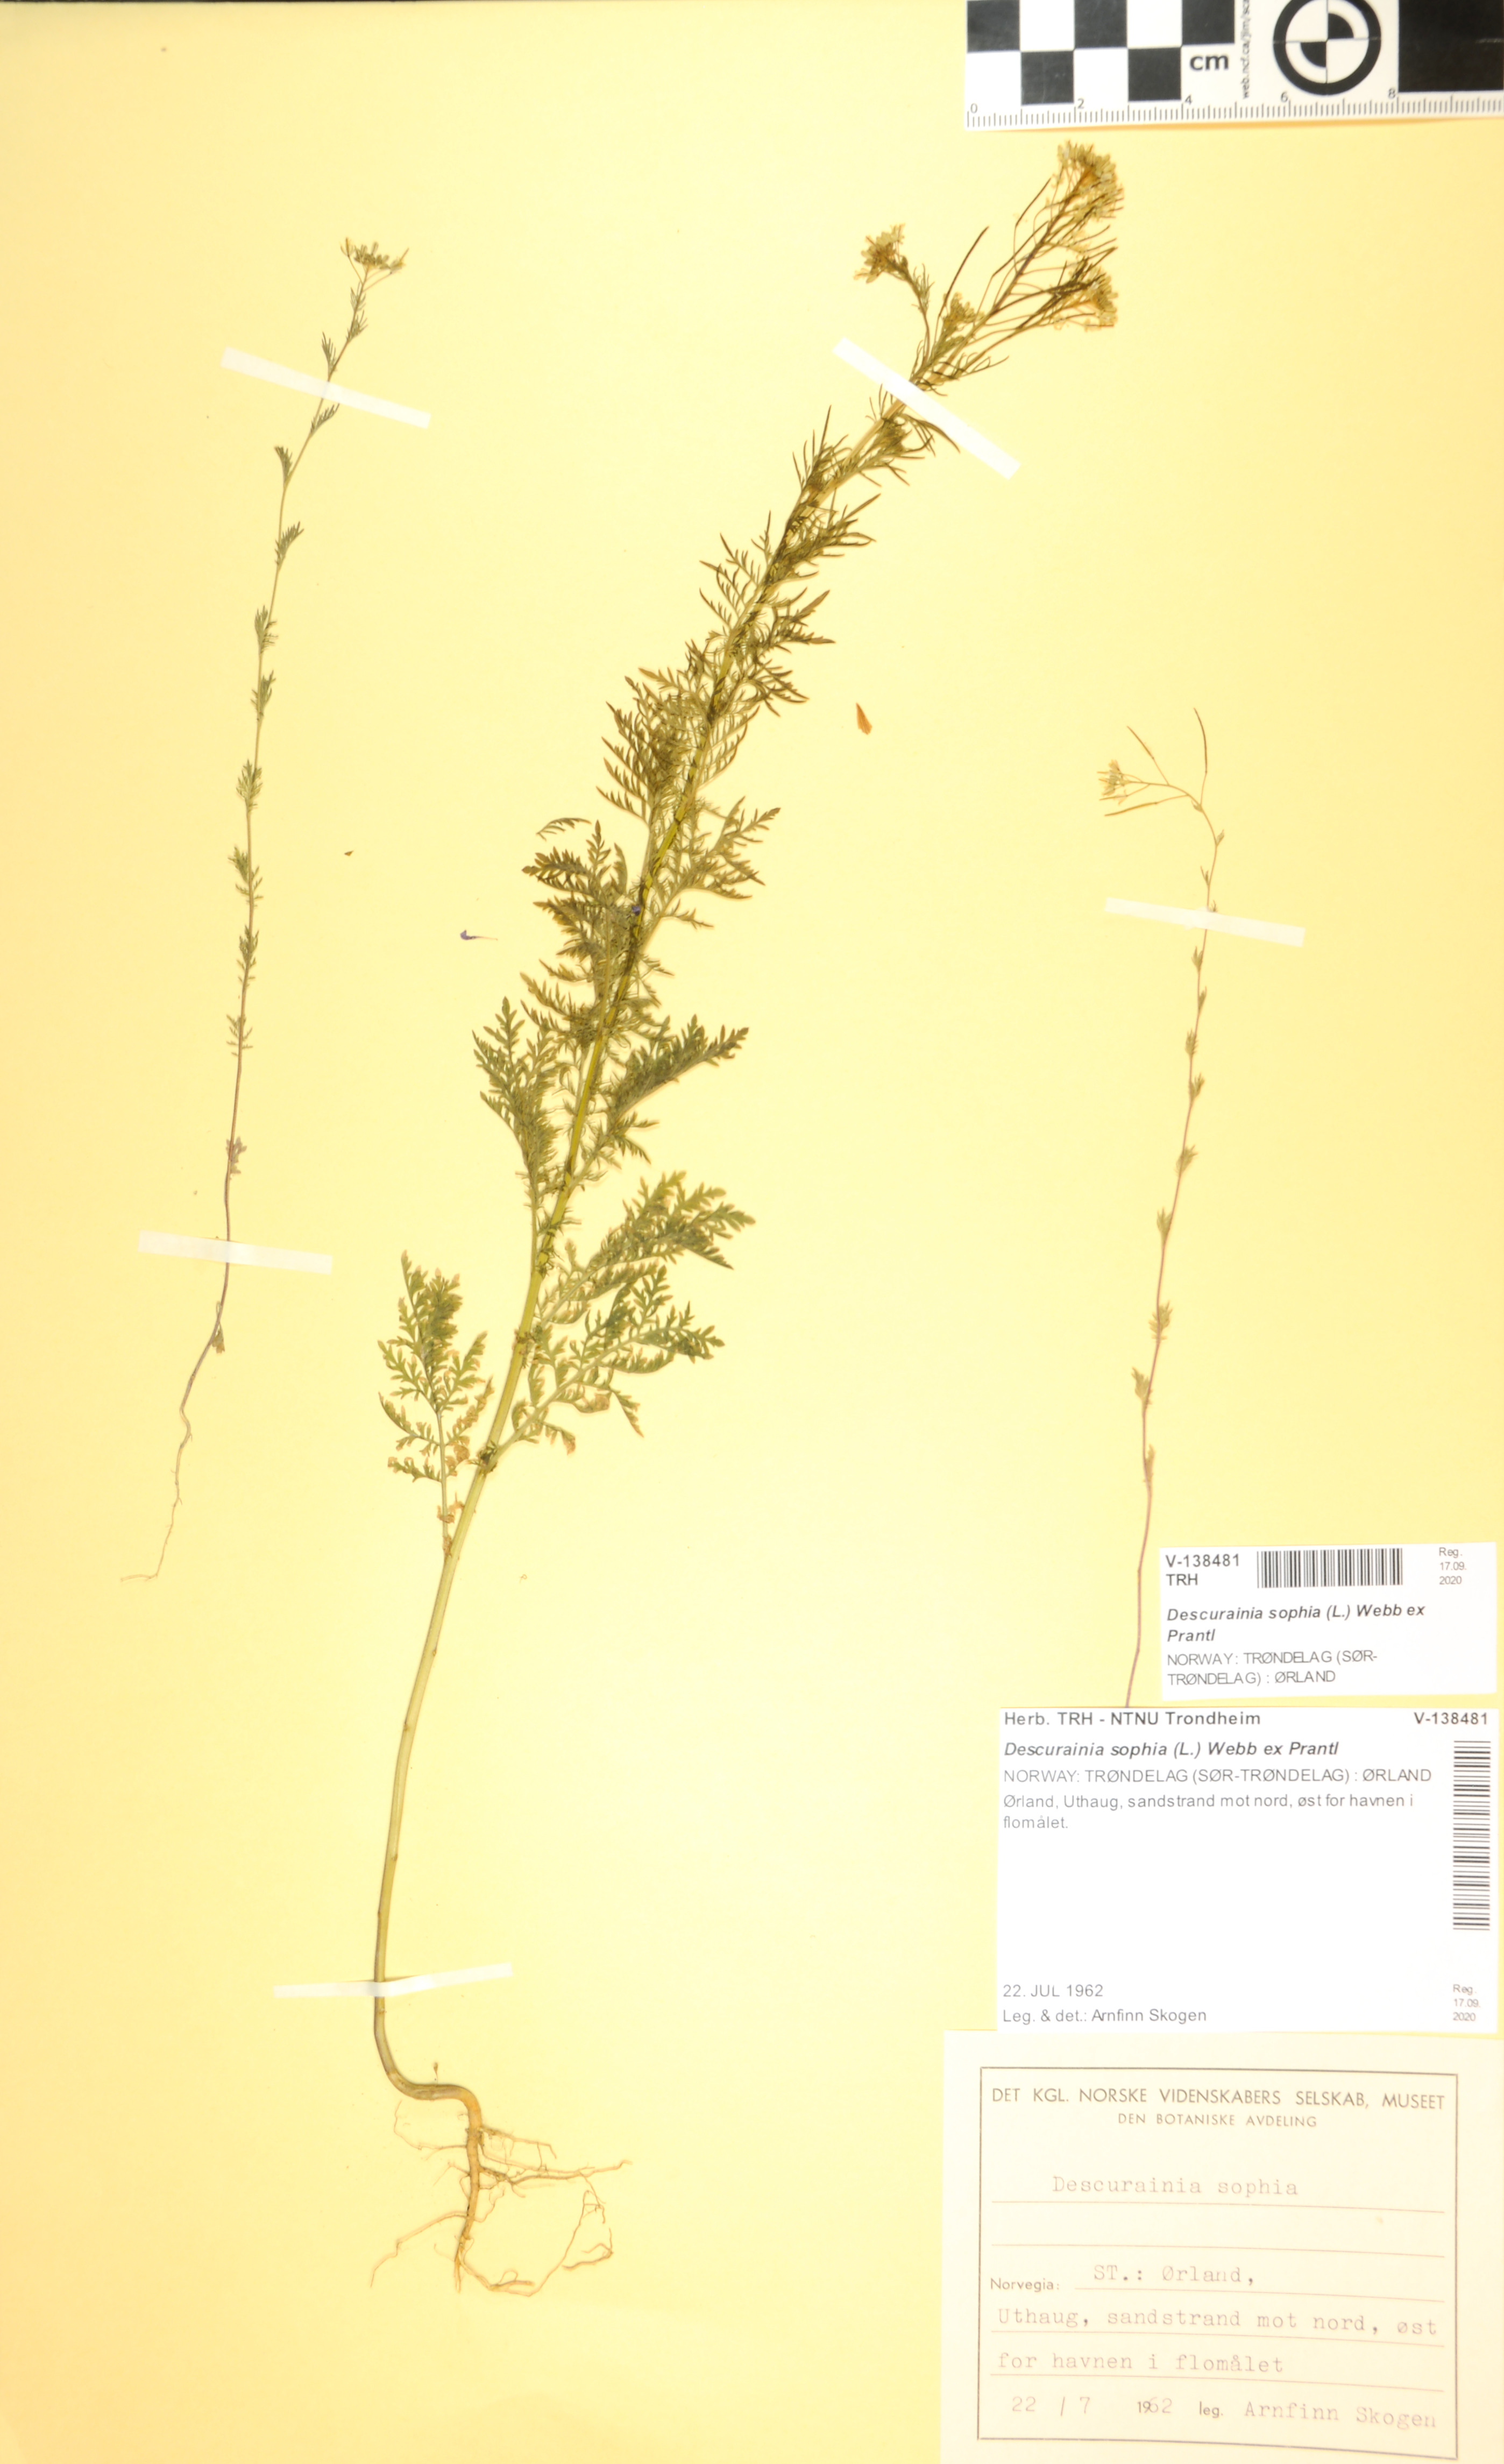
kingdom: Plantae
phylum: Tracheophyta
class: Magnoliopsida
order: Brassicales
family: Brassicaceae
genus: Descurainia
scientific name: Descurainia sophia
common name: Flixweed
